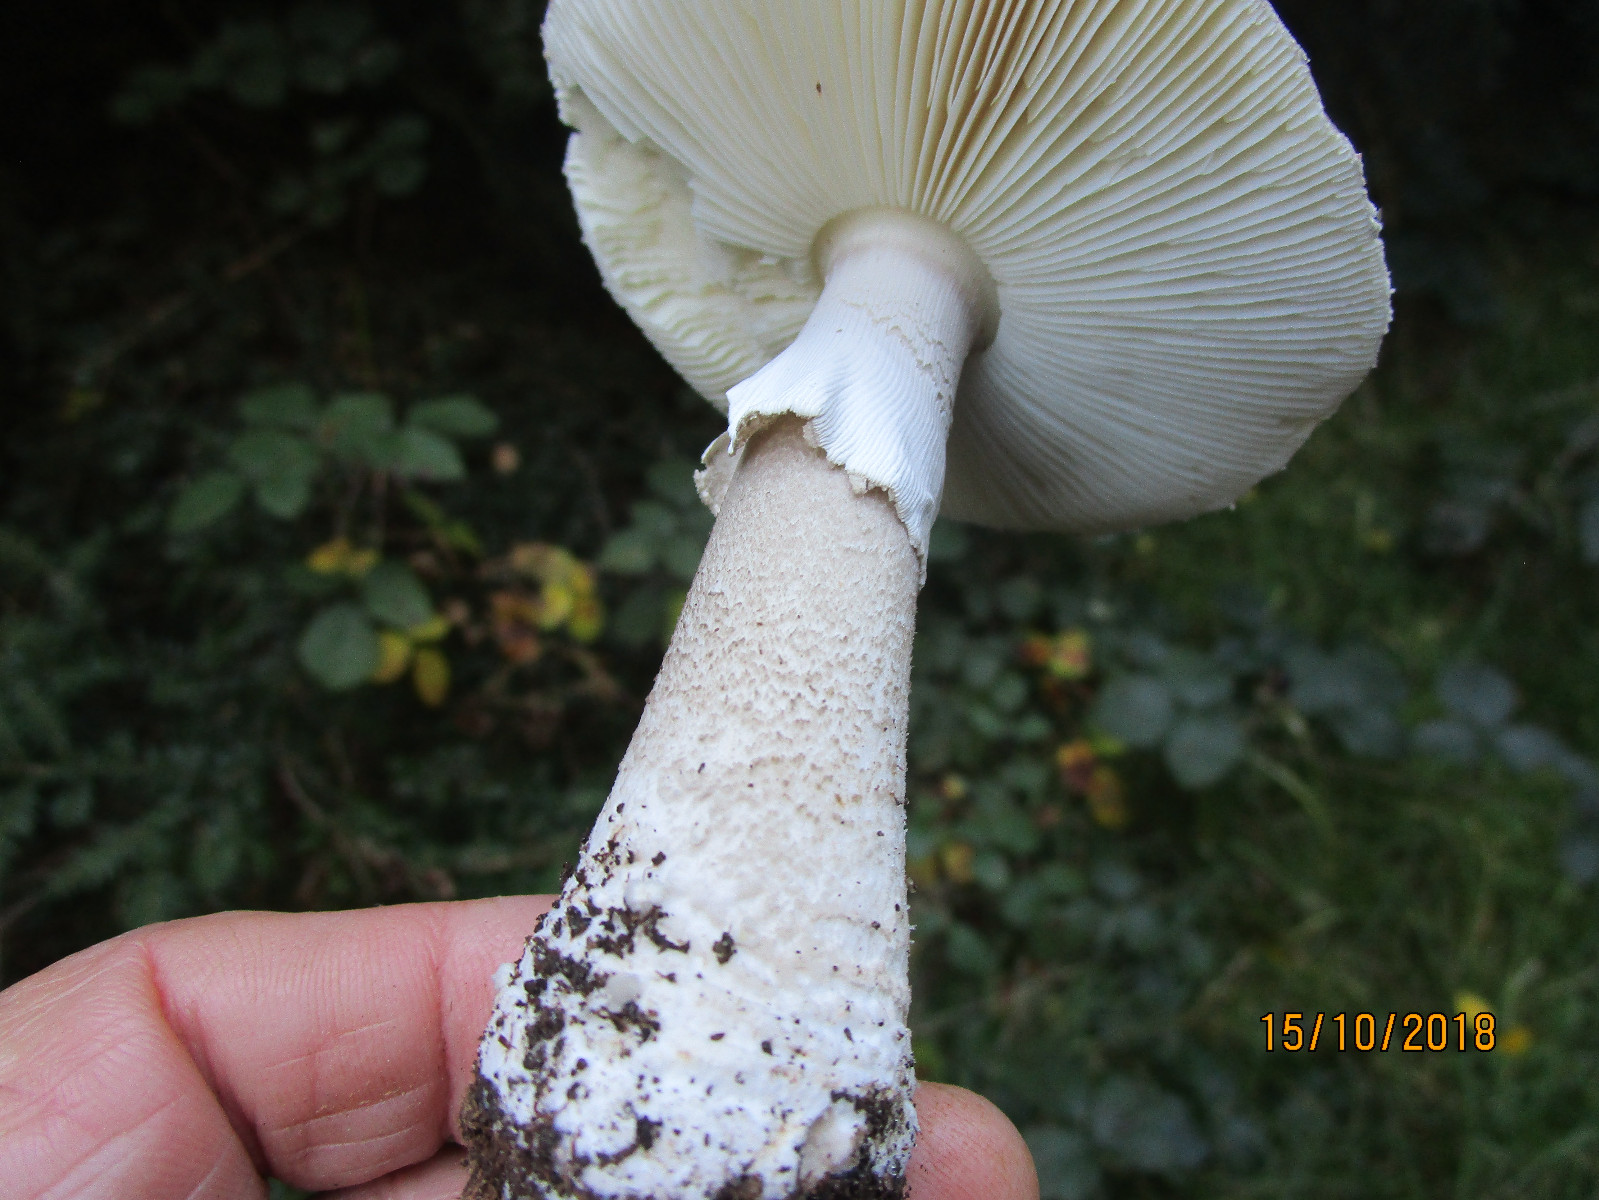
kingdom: Fungi
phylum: Basidiomycota
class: Agaricomycetes
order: Agaricales
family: Amanitaceae
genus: Amanita
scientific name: Amanita
